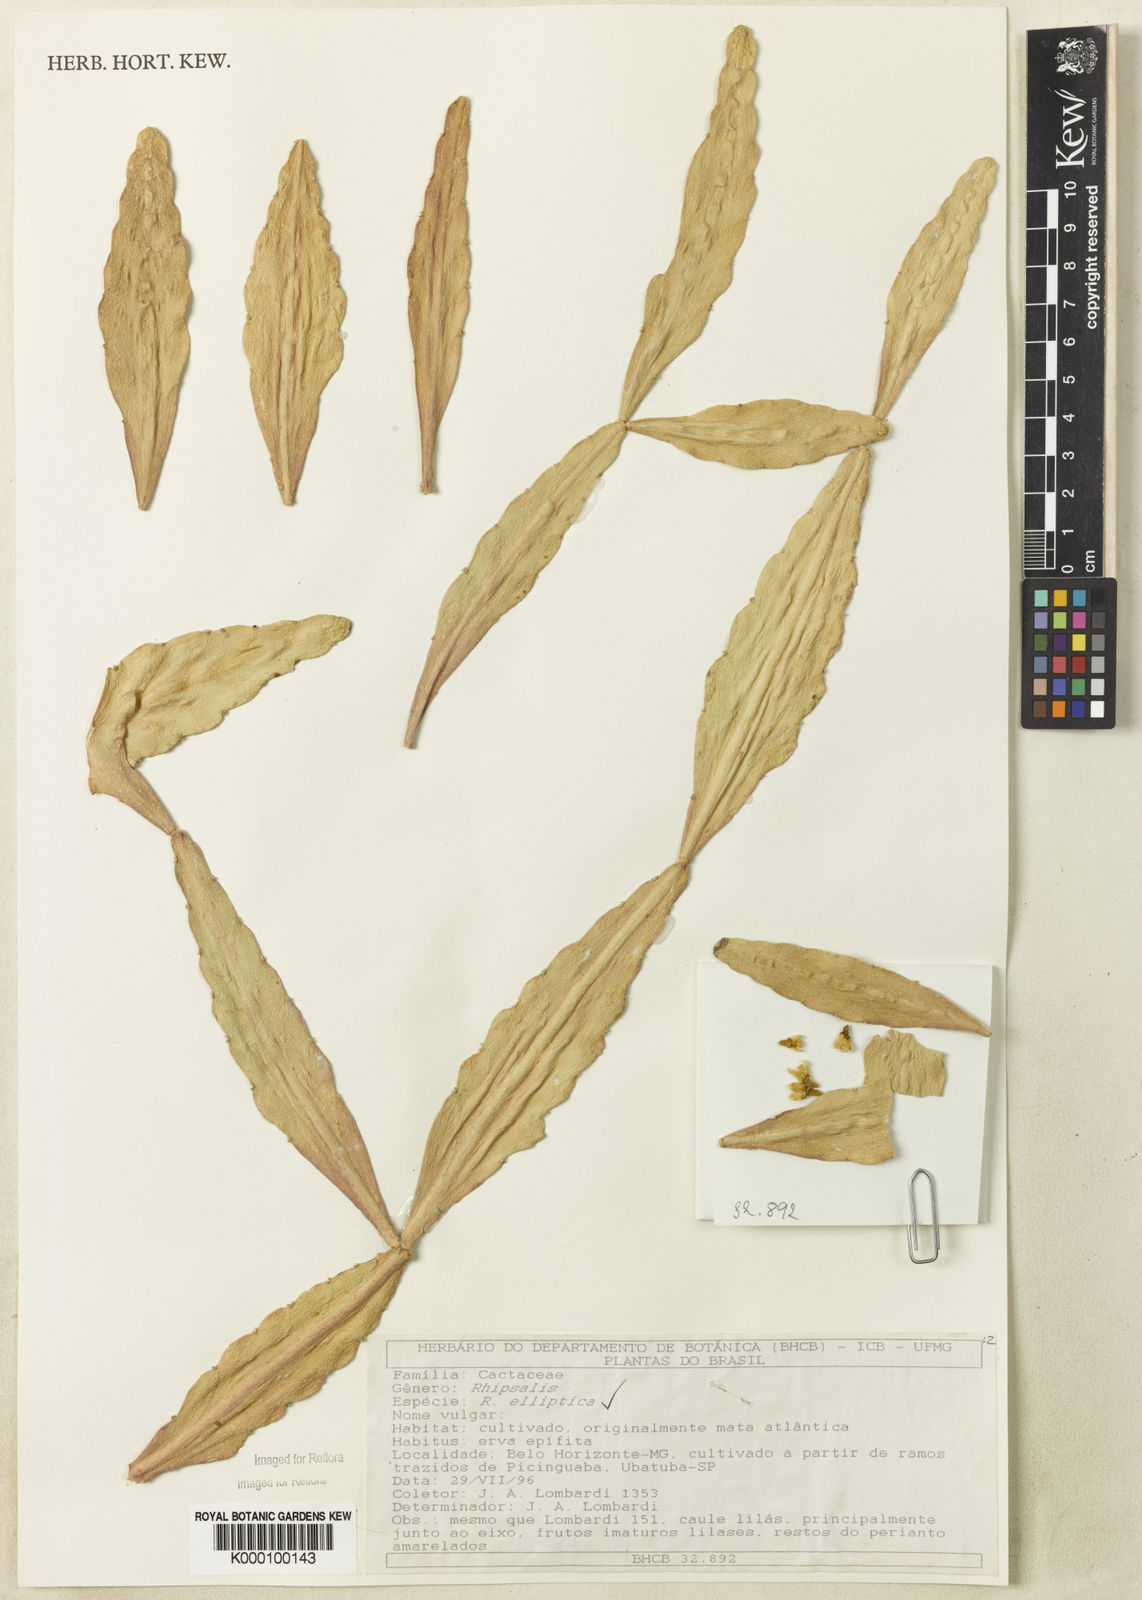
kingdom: Plantae
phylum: Tracheophyta
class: Magnoliopsida
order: Caryophyllales
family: Cactaceae
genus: Rhipsalis
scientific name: Rhipsalis elliptica
